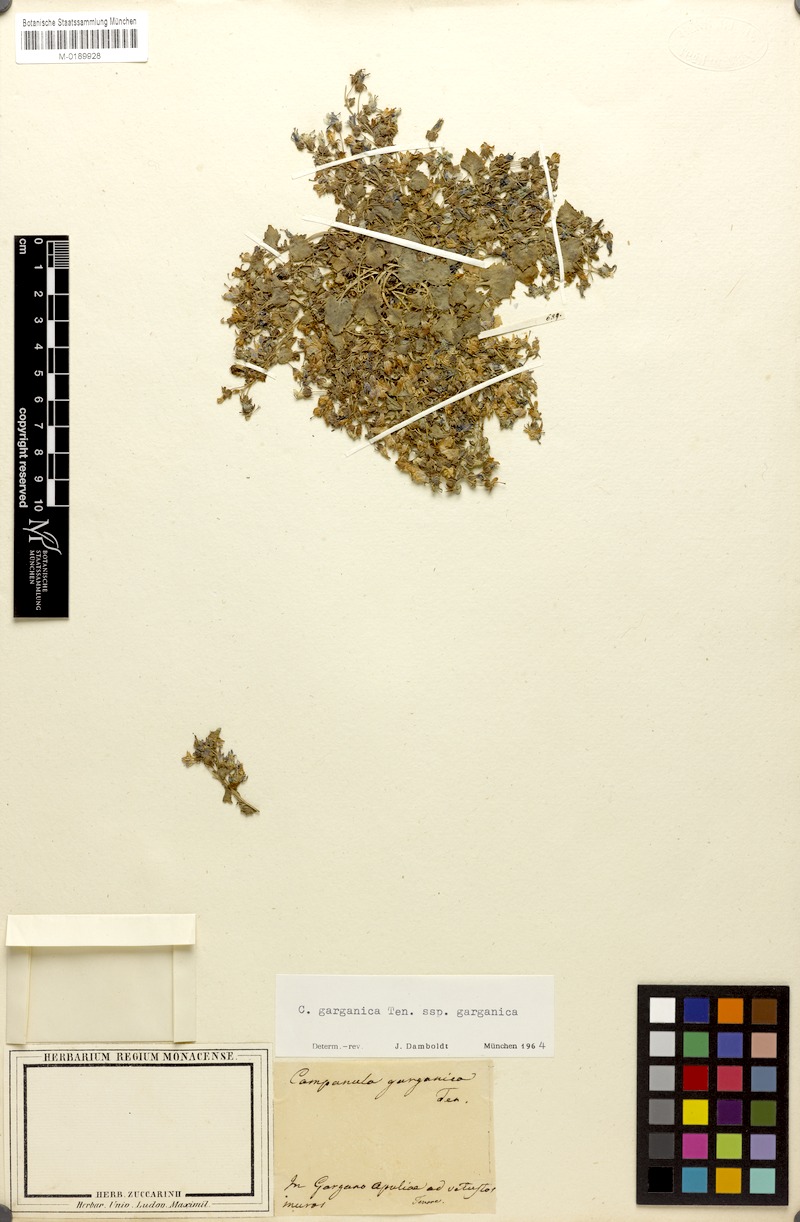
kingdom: Plantae
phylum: Tracheophyta
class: Magnoliopsida
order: Asterales
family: Campanulaceae
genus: Campanula
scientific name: Campanula garganica
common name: Adriatic bellflower
